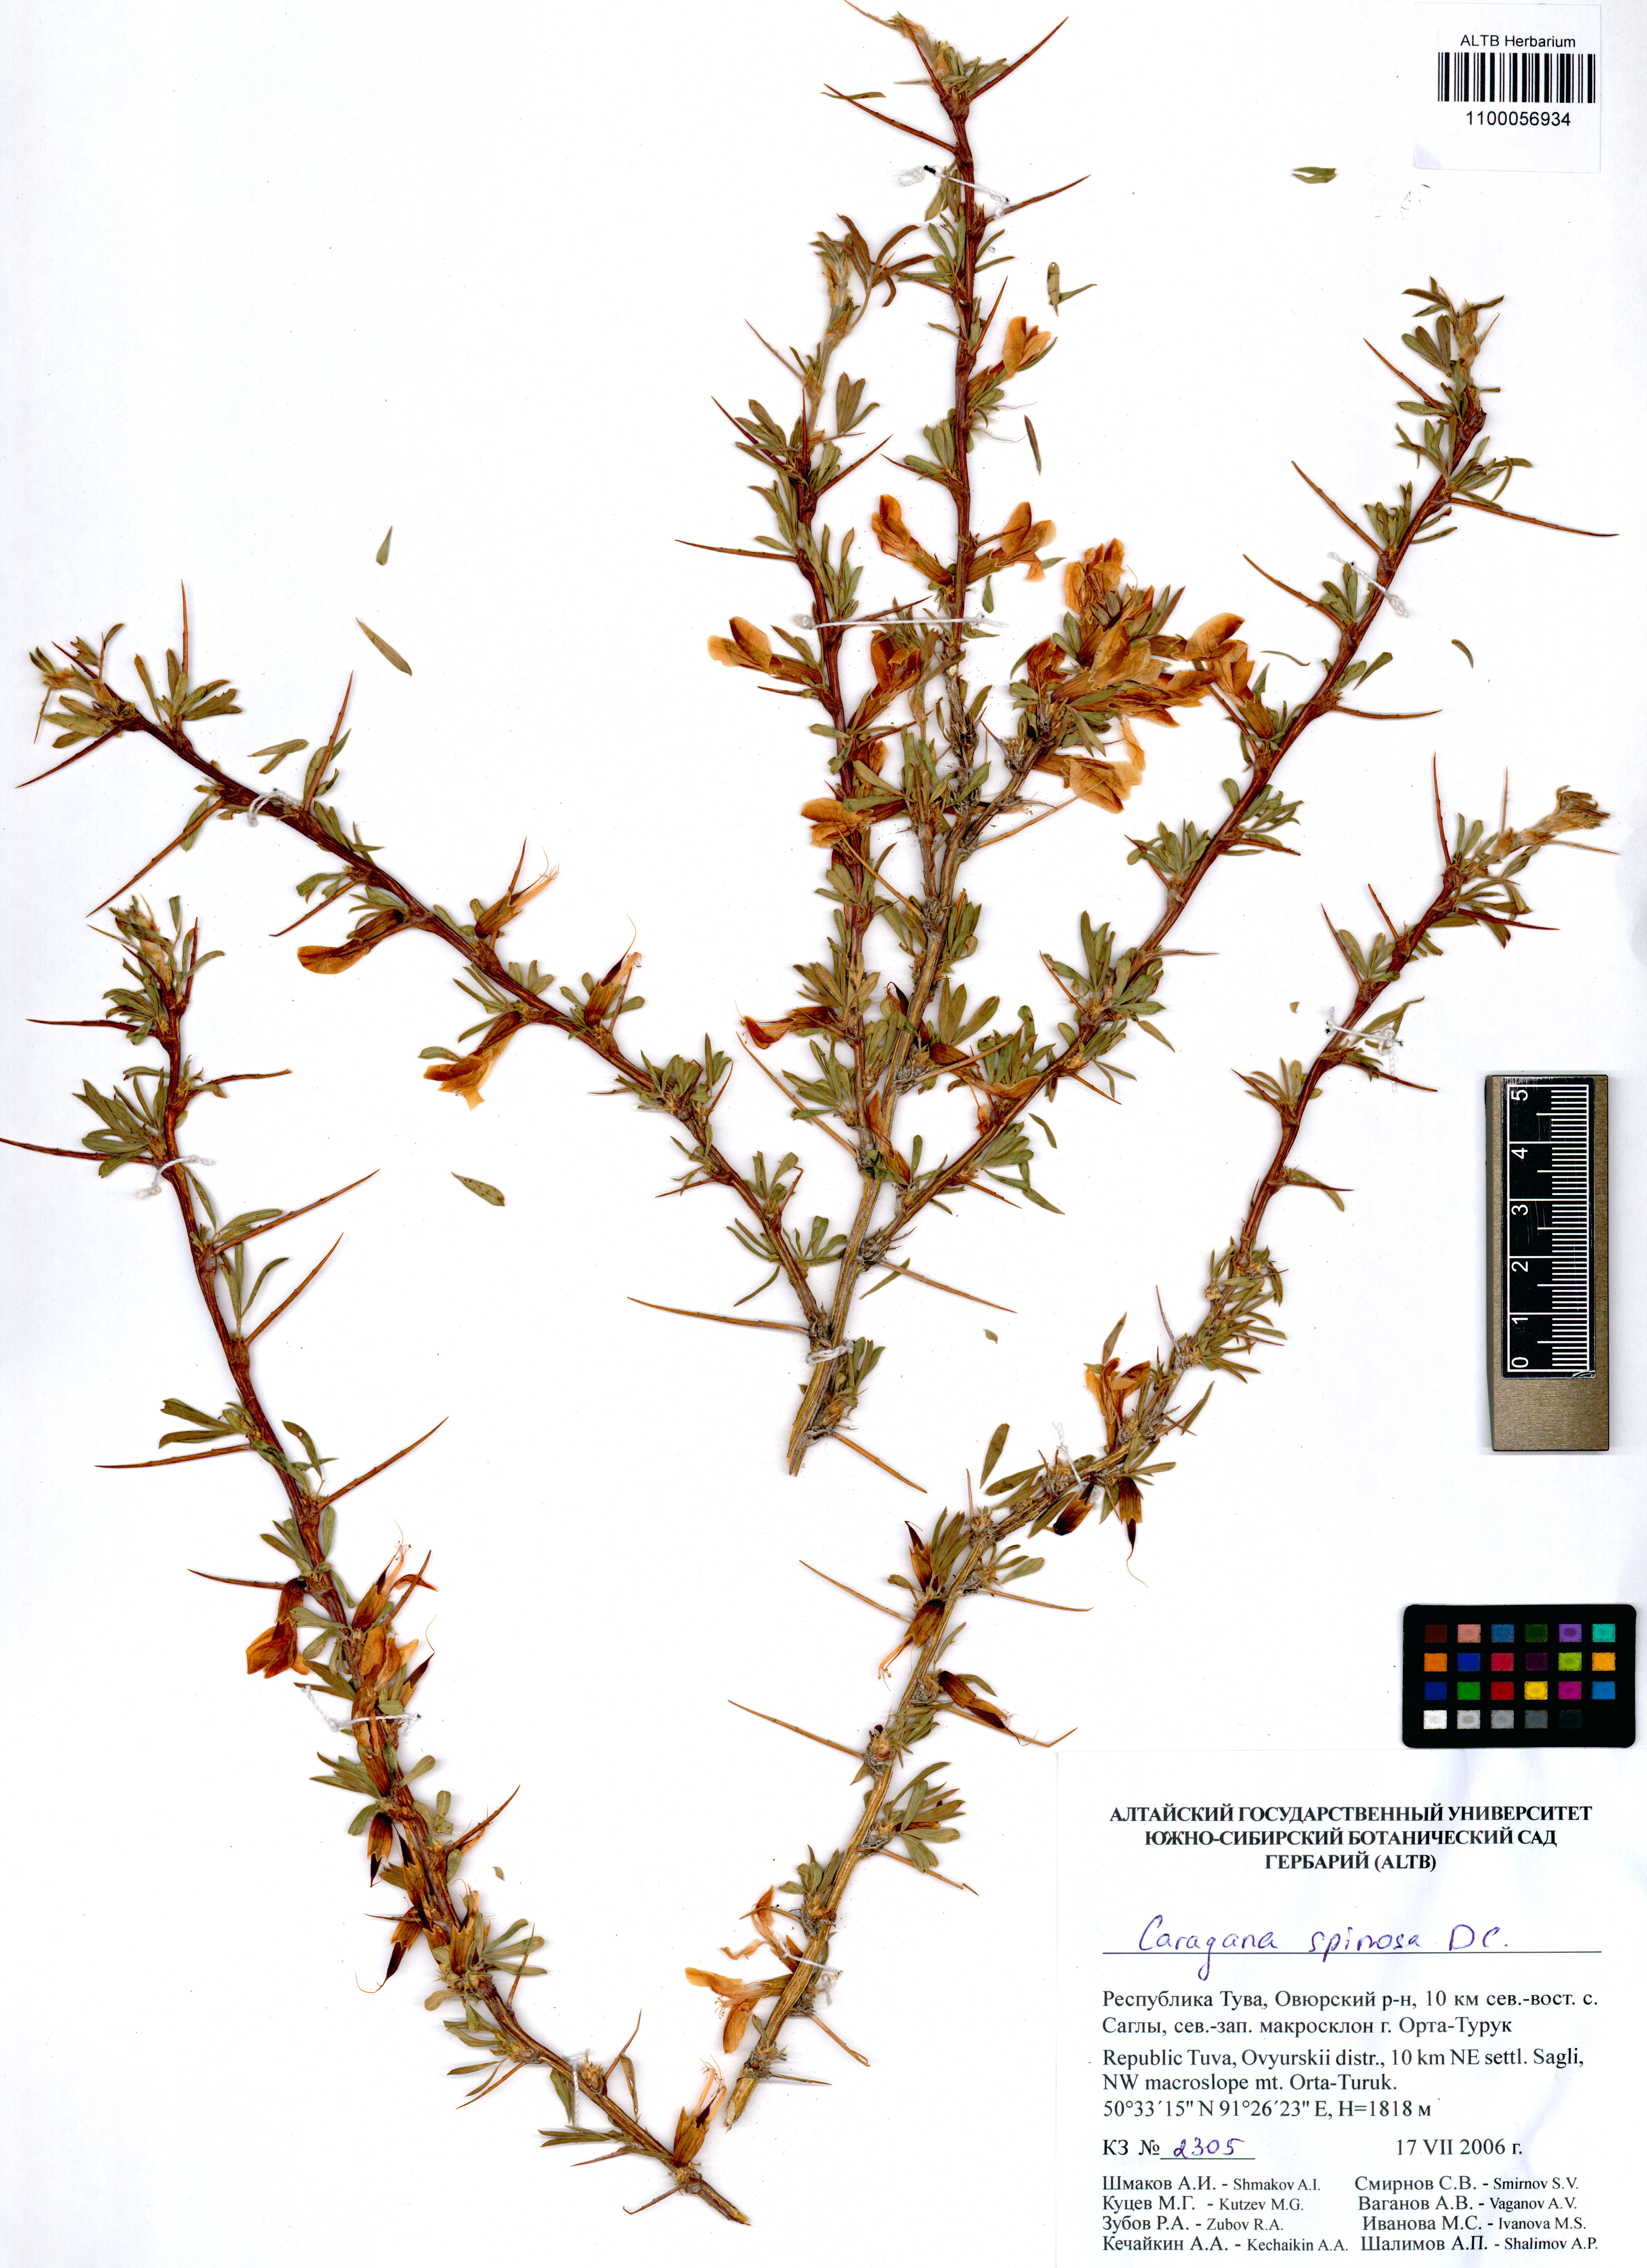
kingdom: Plantae
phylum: Tracheophyta
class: Magnoliopsida
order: Fabales
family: Fabaceae
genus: Caragana
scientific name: Caragana spinosa
